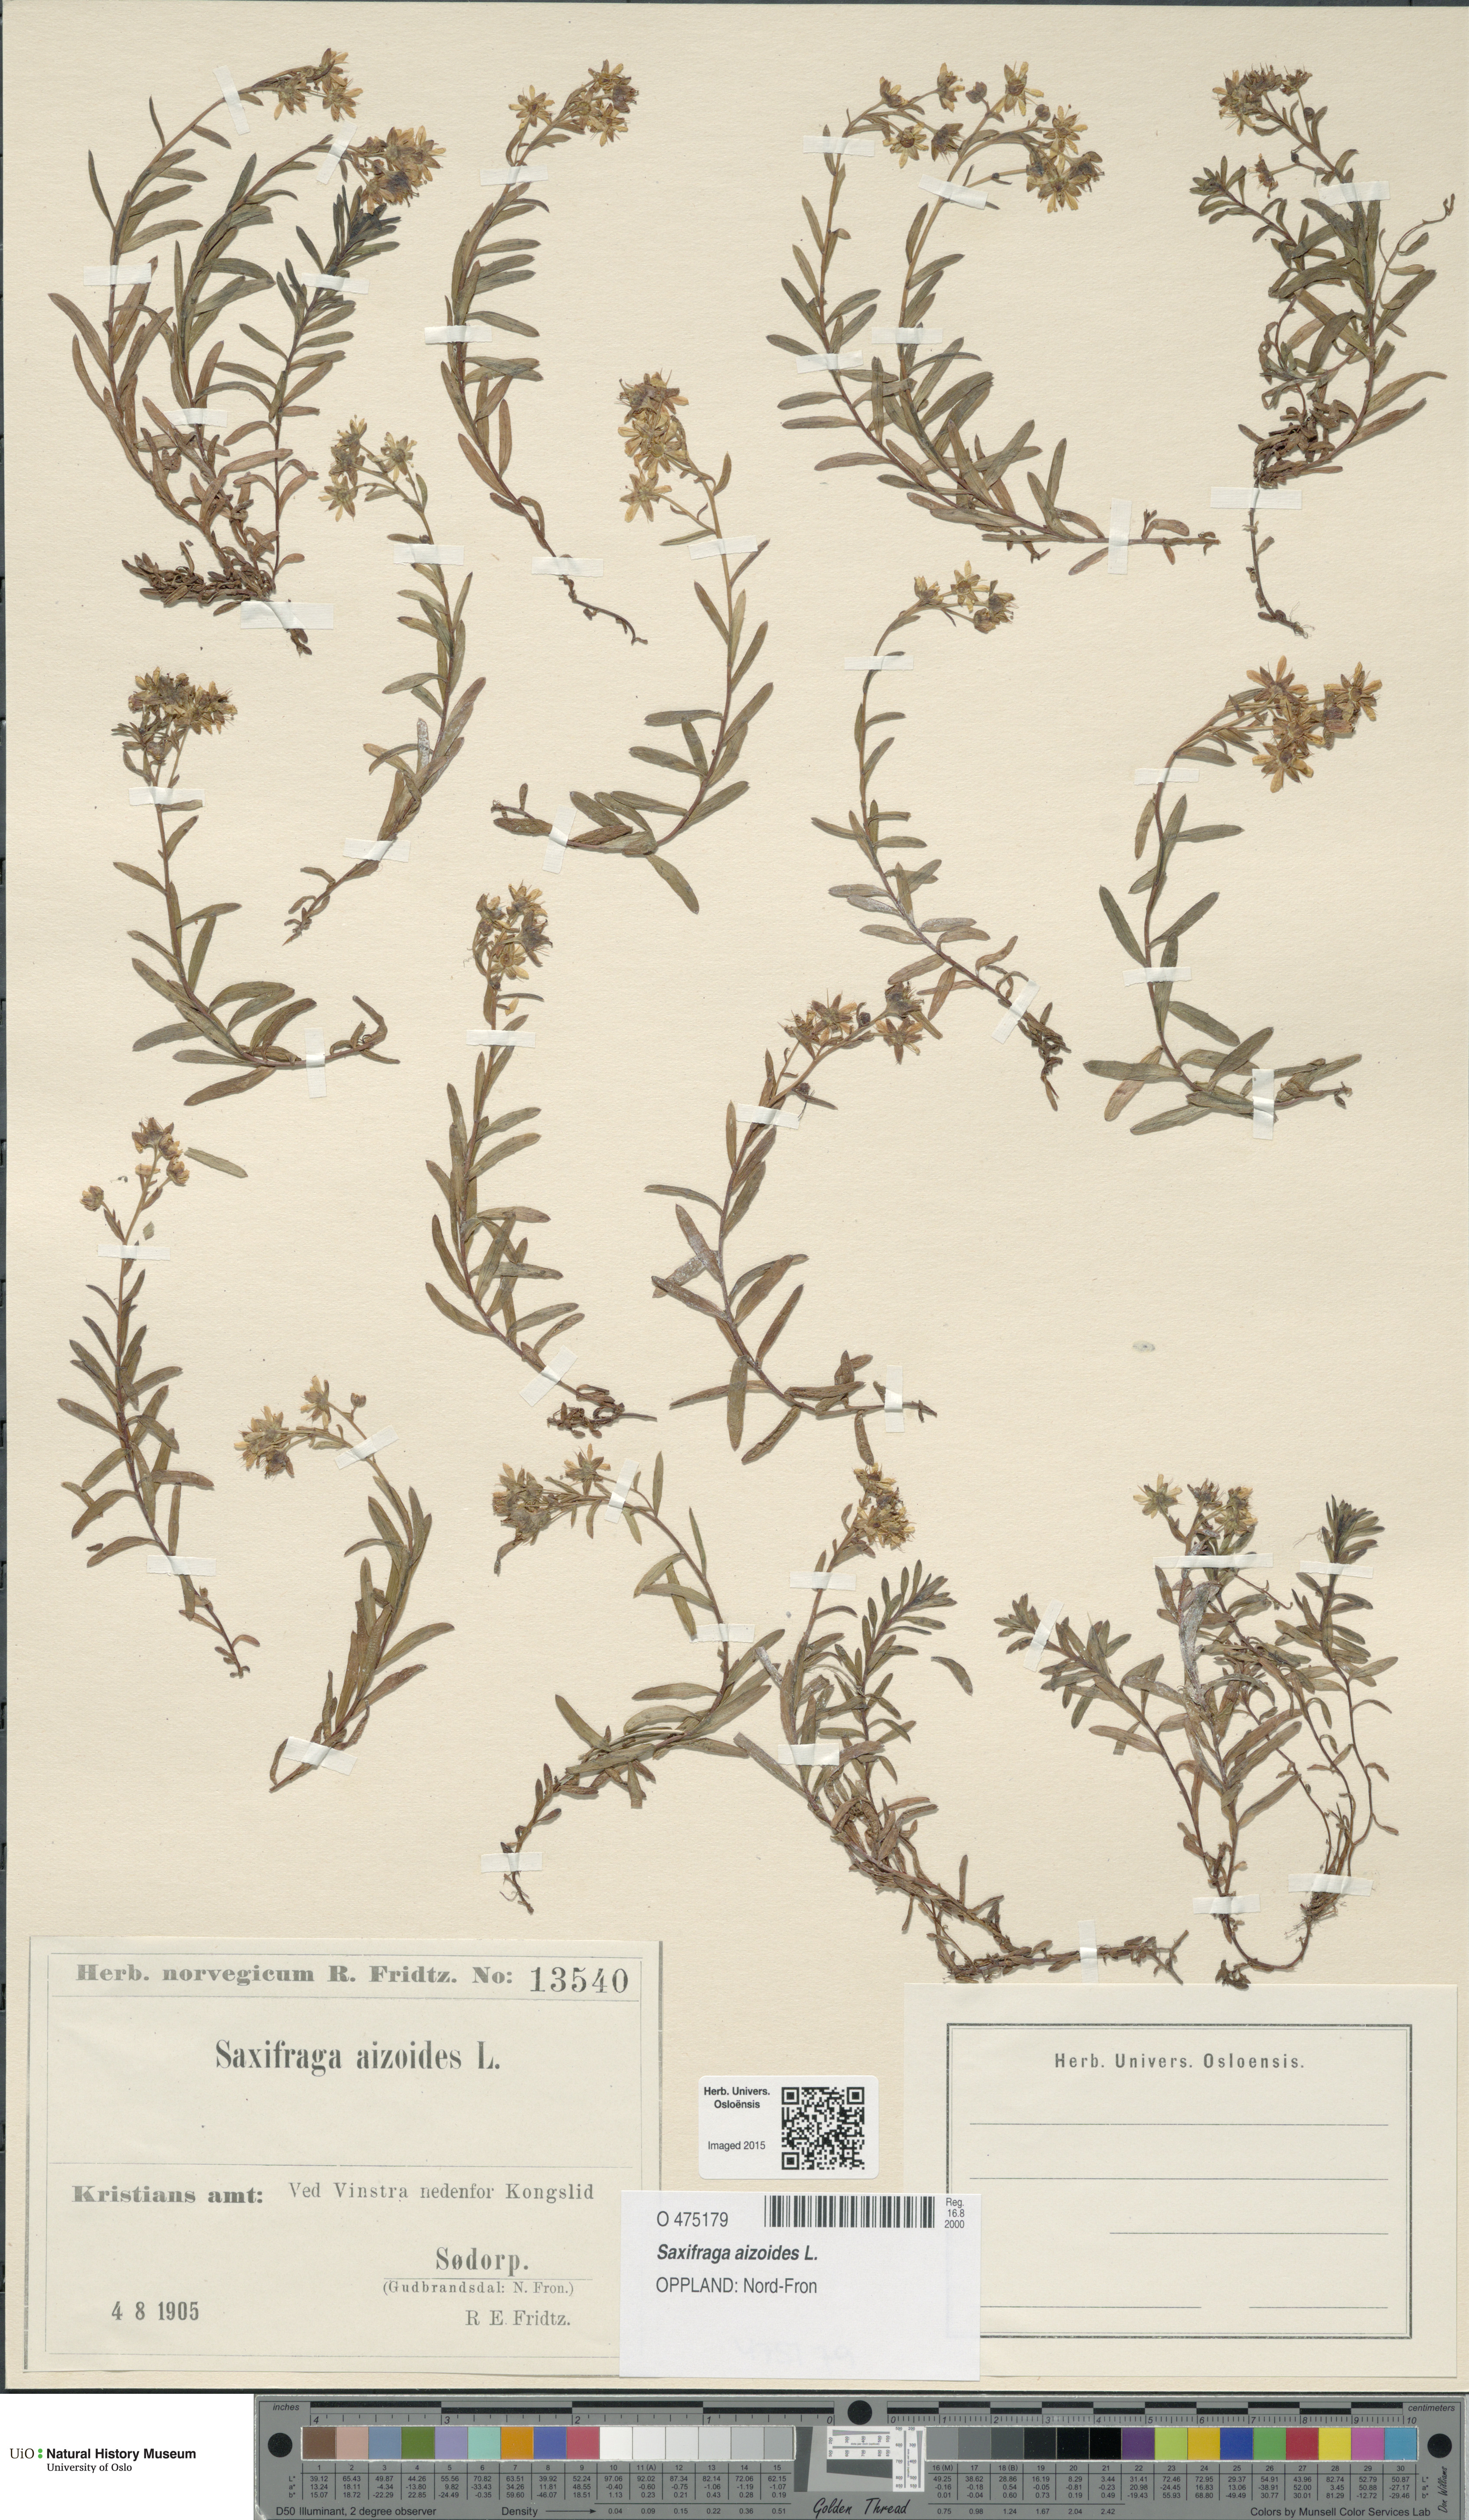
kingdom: Plantae
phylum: Tracheophyta
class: Magnoliopsida
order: Saxifragales
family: Saxifragaceae
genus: Saxifraga
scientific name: Saxifraga aizoides
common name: Yellow mountain saxifrage
